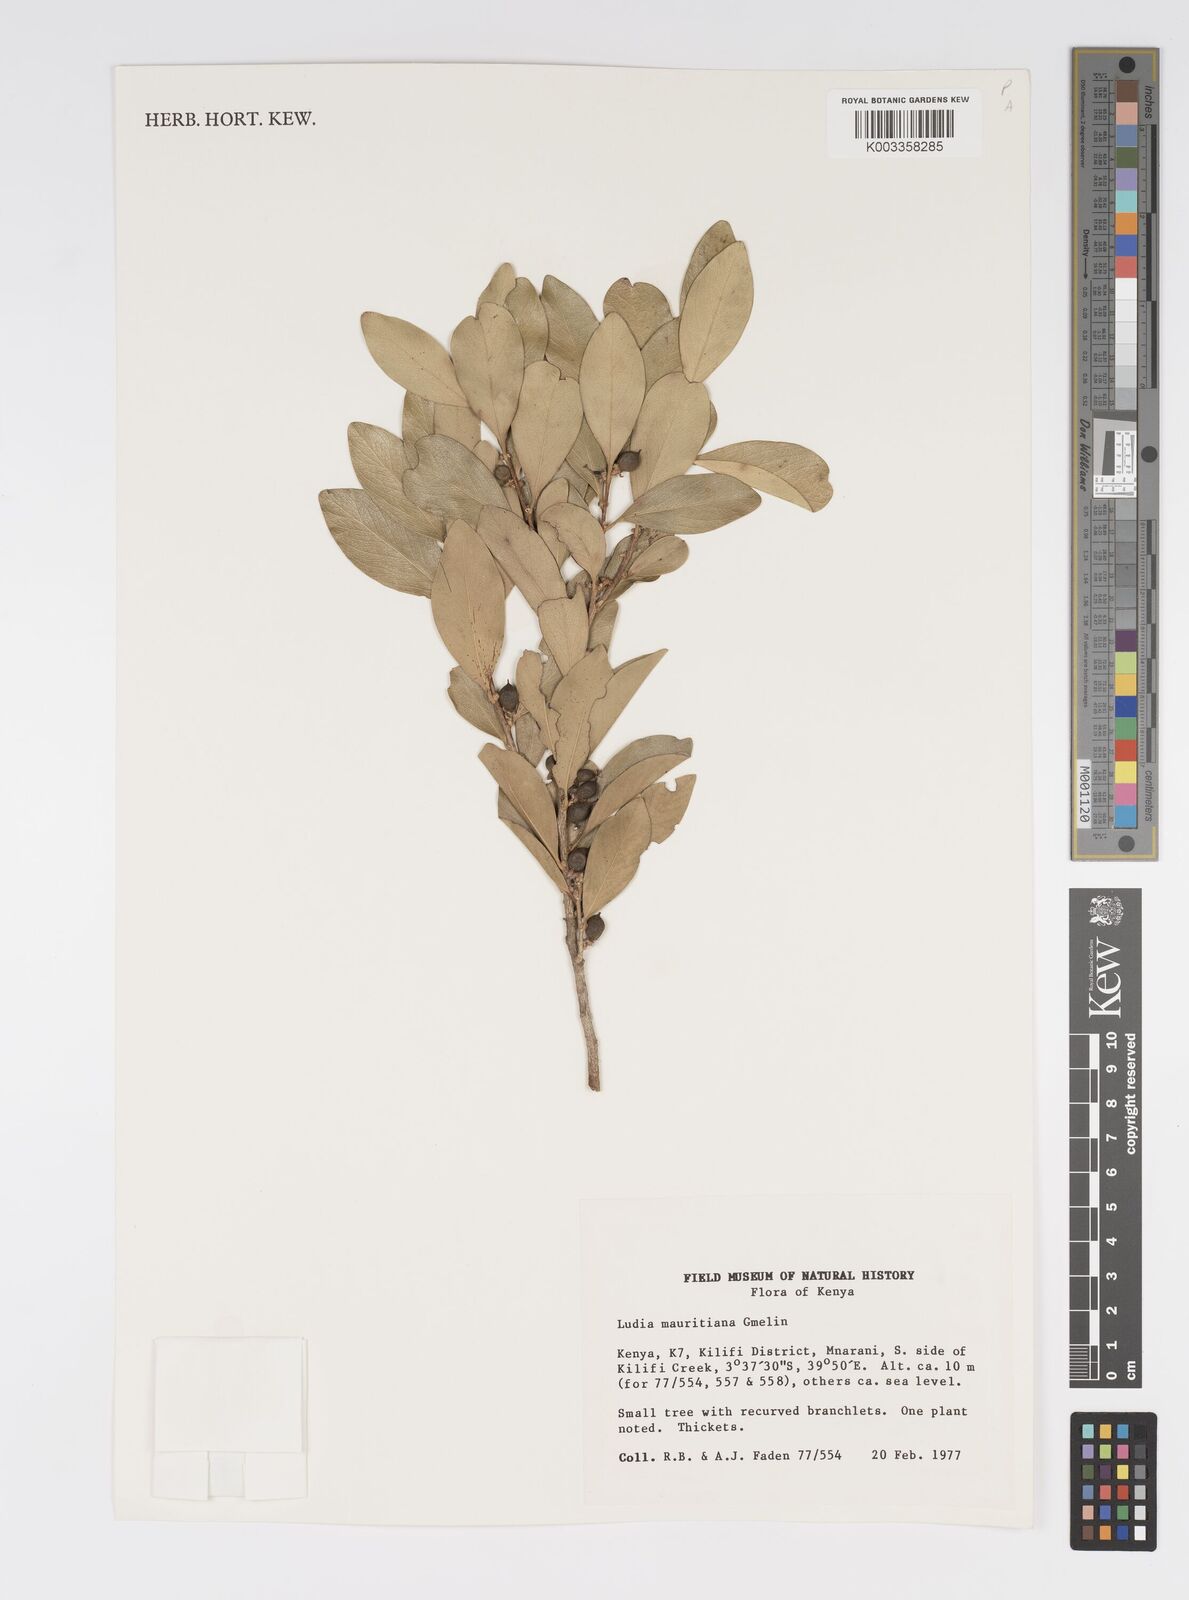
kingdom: Plantae
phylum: Tracheophyta
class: Magnoliopsida
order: Malpighiales
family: Salicaceae
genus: Ludia
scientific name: Ludia mauritiana
